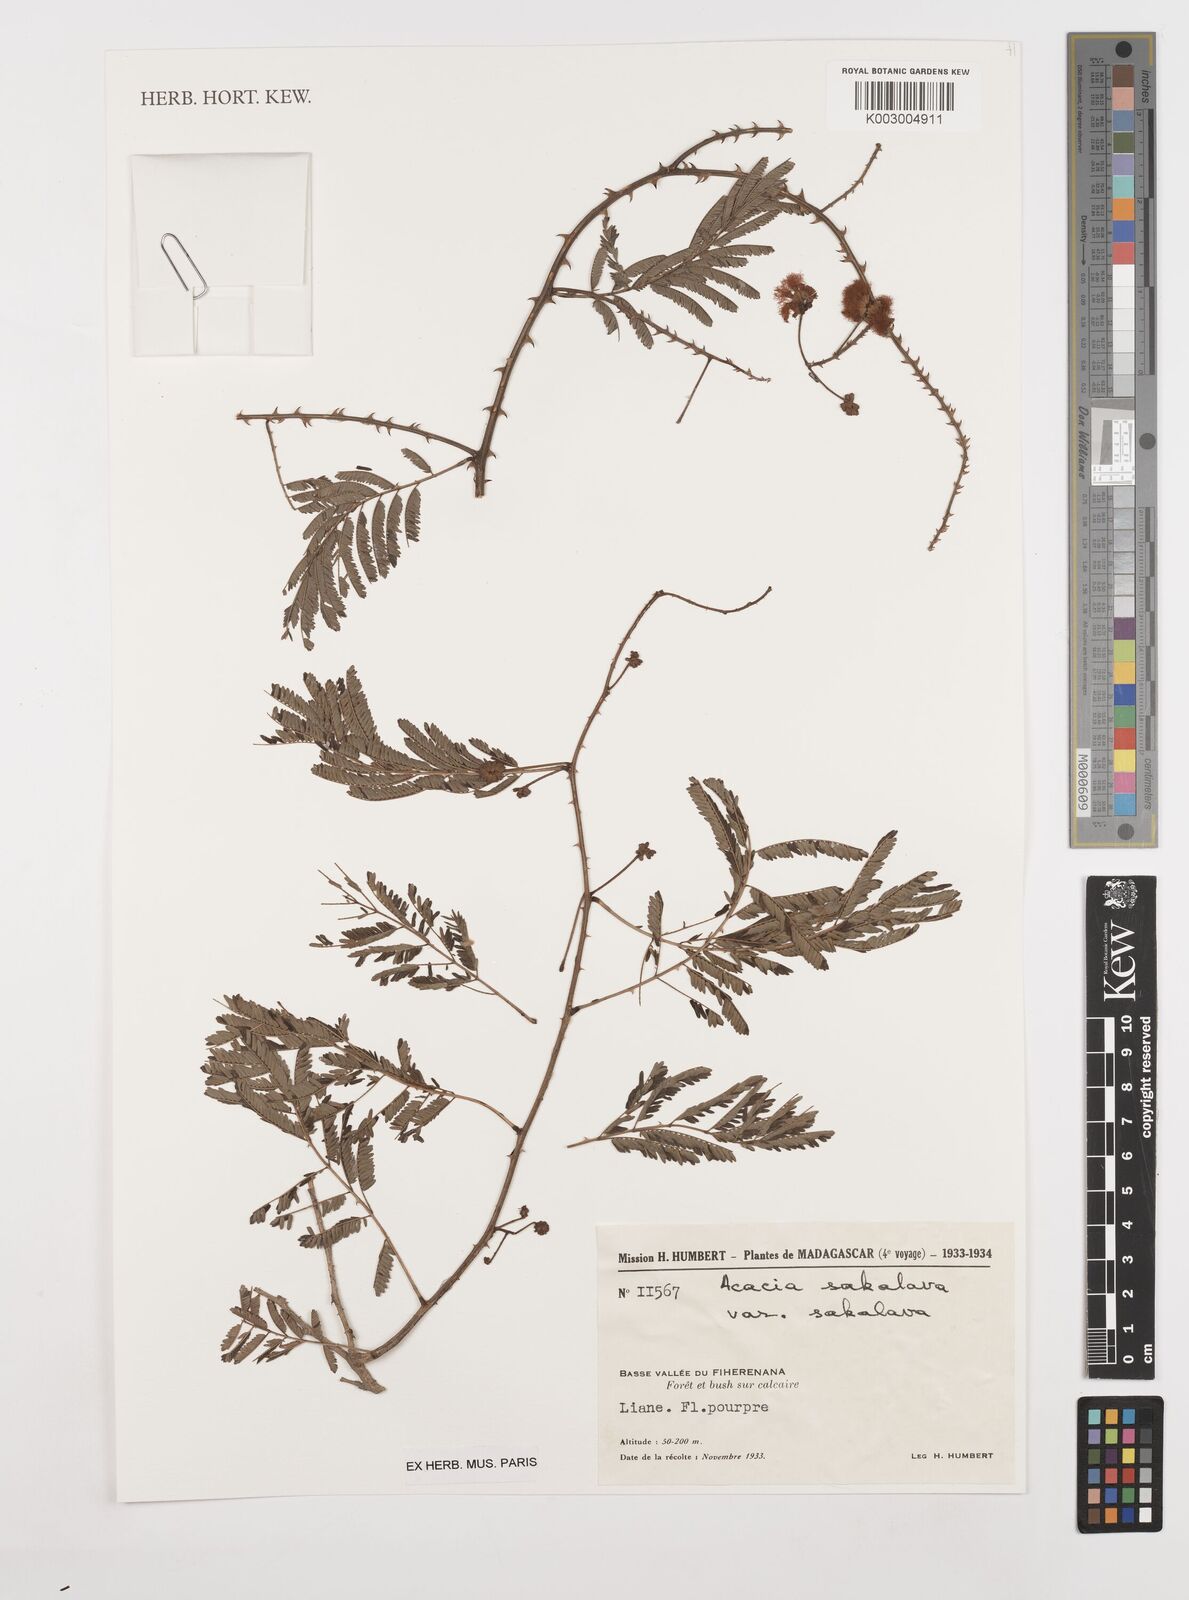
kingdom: Plantae
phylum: Tracheophyta
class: Magnoliopsida
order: Fabales
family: Fabaceae
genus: Senegalia
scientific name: Senegalia sakalava
